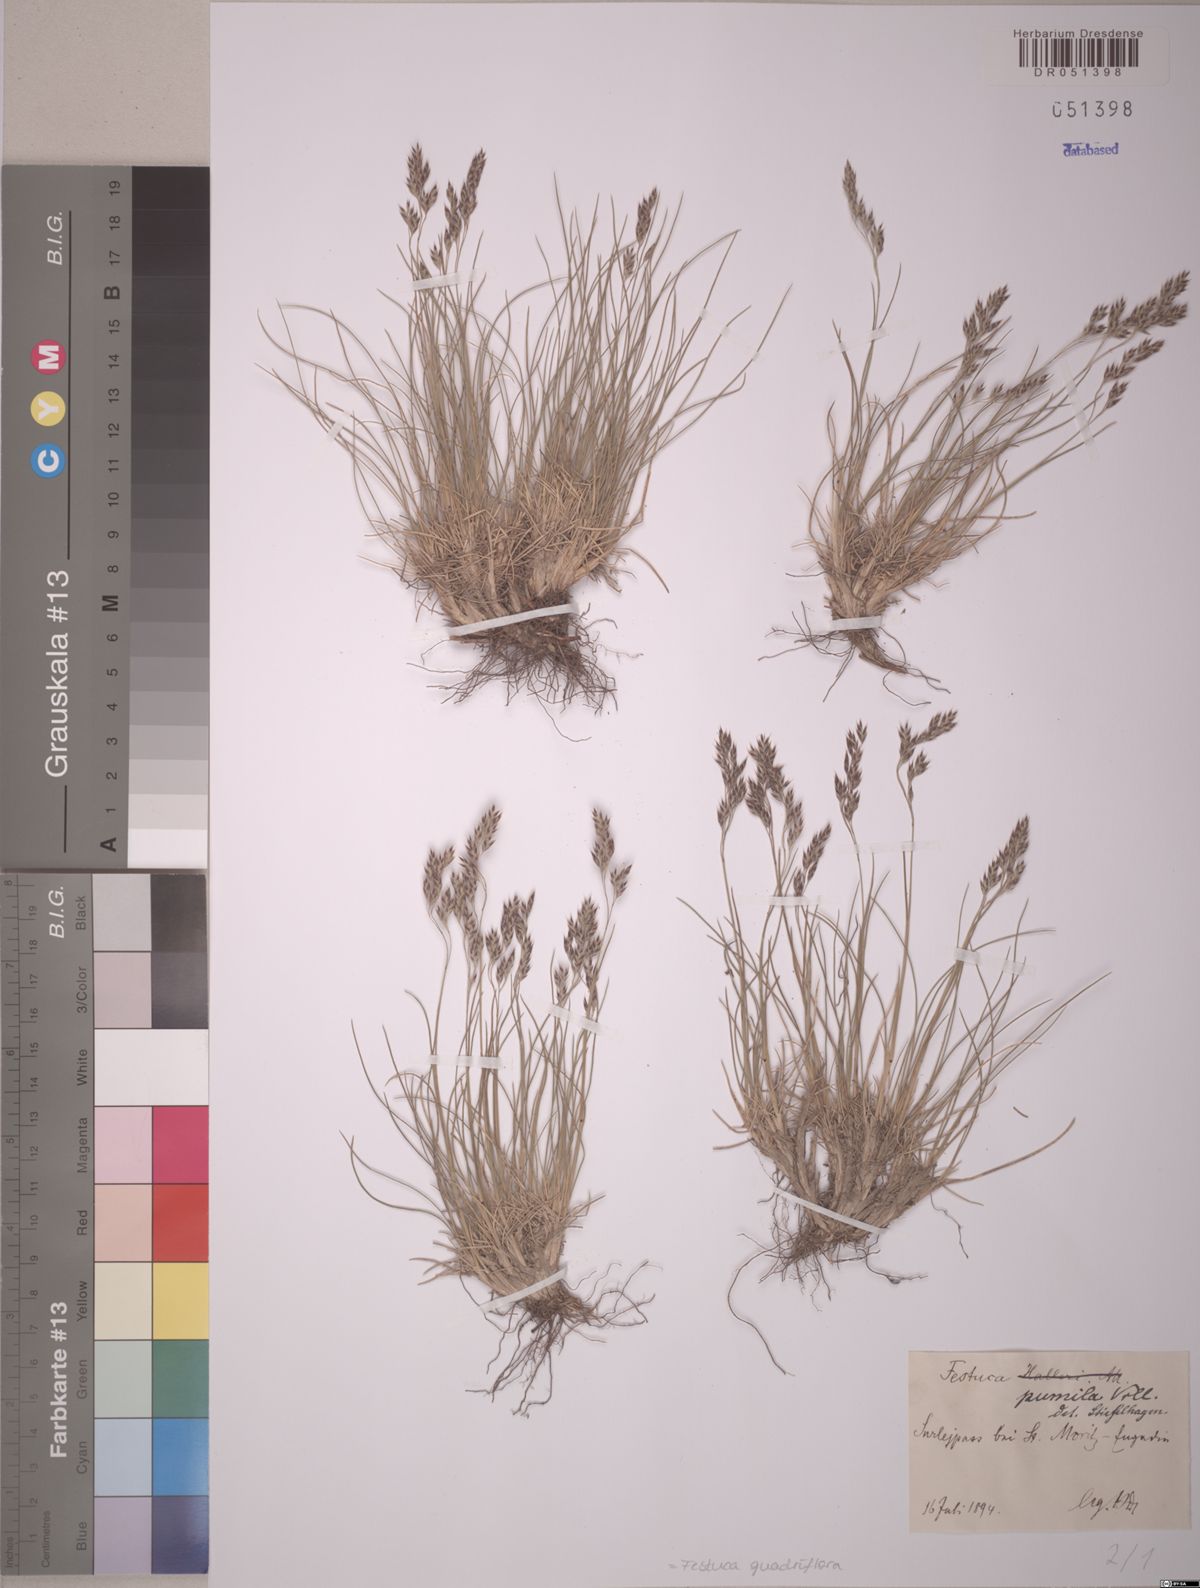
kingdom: Plantae
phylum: Tracheophyta
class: Liliopsida
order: Poales
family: Poaceae
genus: Festuca
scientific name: Festuca quadriflora
